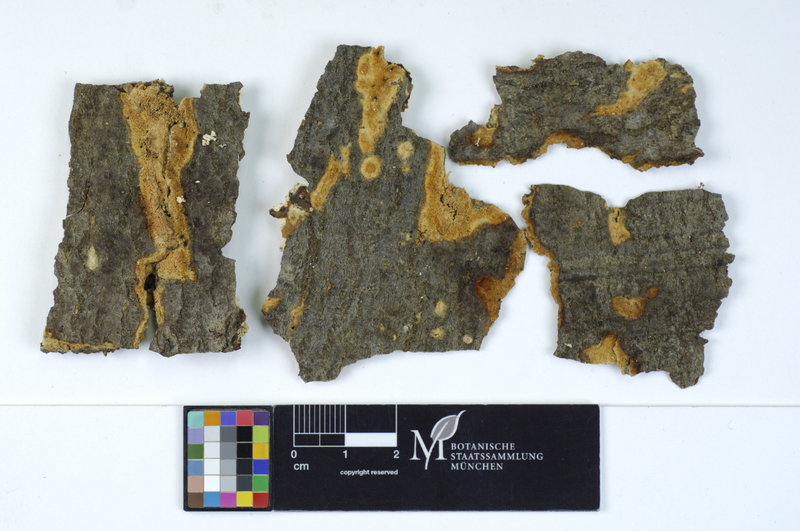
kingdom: Plantae
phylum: Tracheophyta
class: Magnoliopsida
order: Fagales
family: Fagaceae
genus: Fagus
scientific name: Fagus sylvatica
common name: Beech
